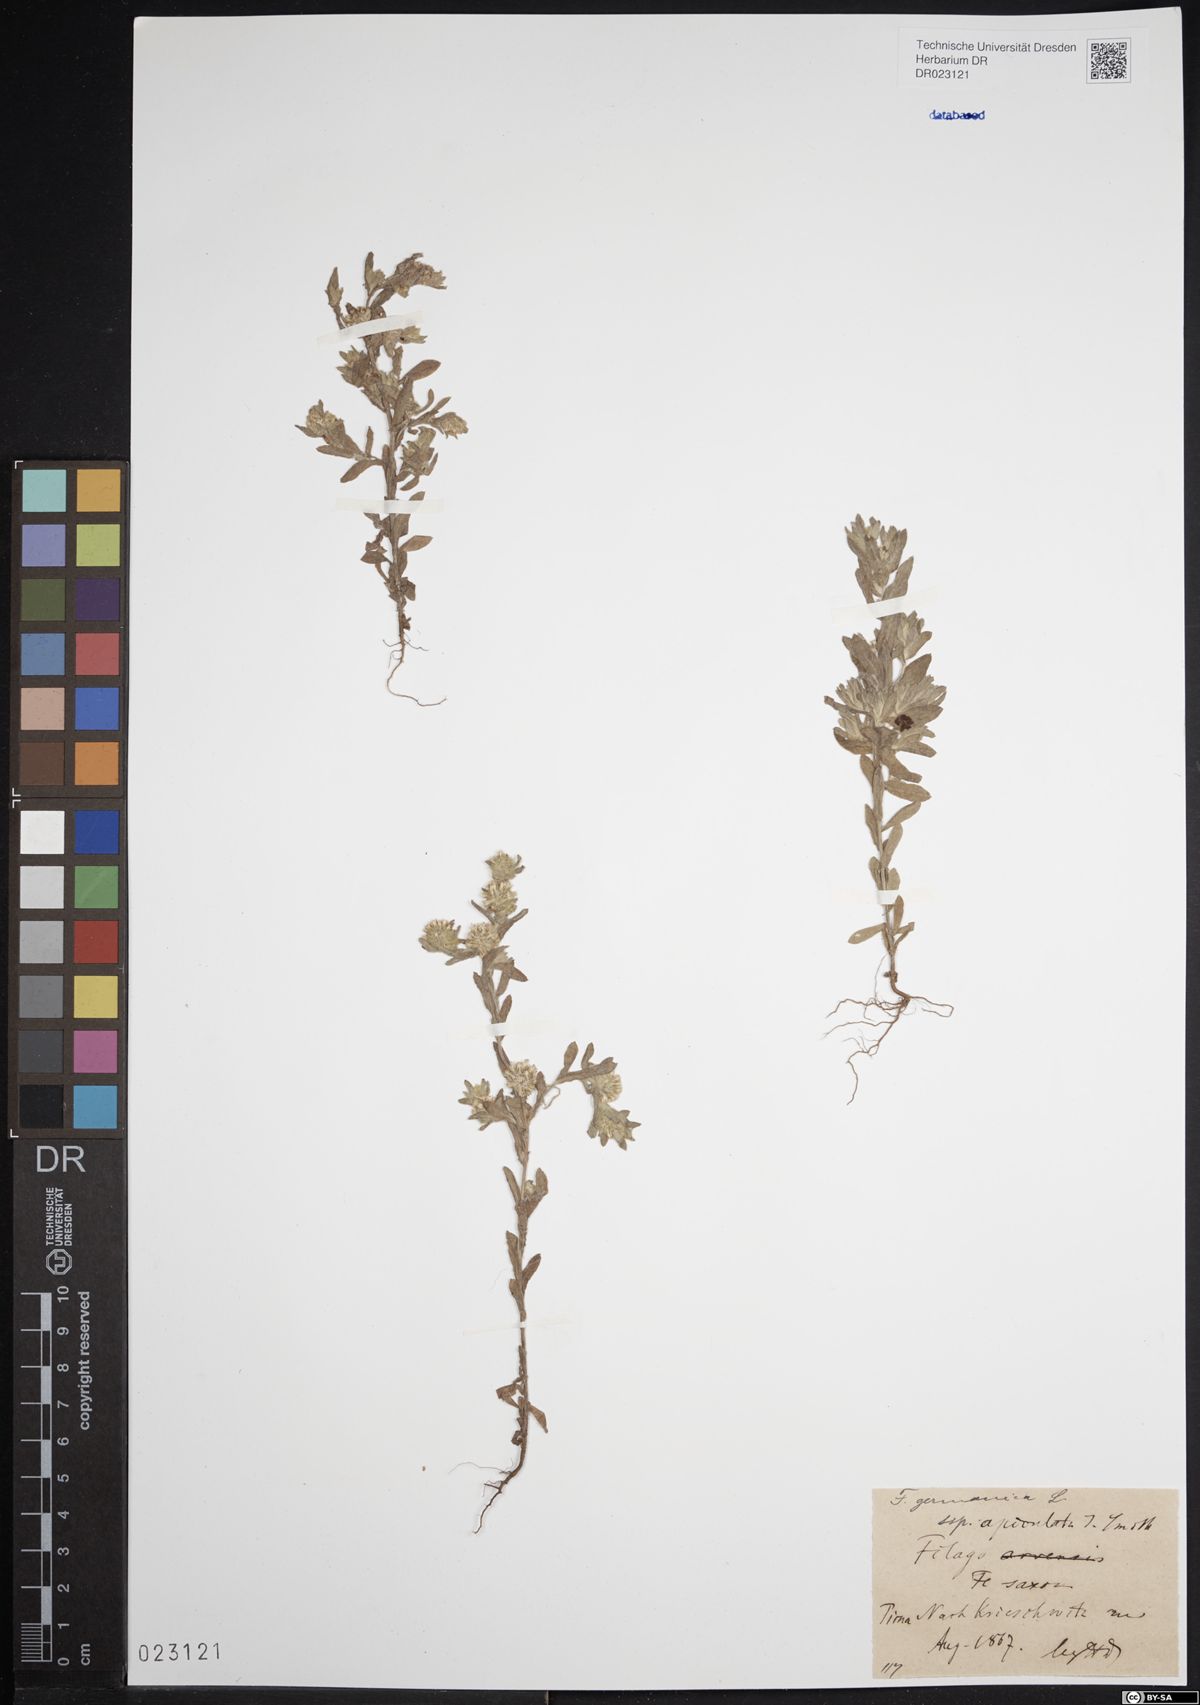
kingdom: Plantae
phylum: Tracheophyta
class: Magnoliopsida
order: Asterales
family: Asteraceae
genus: Filago
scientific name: Filago germanica
